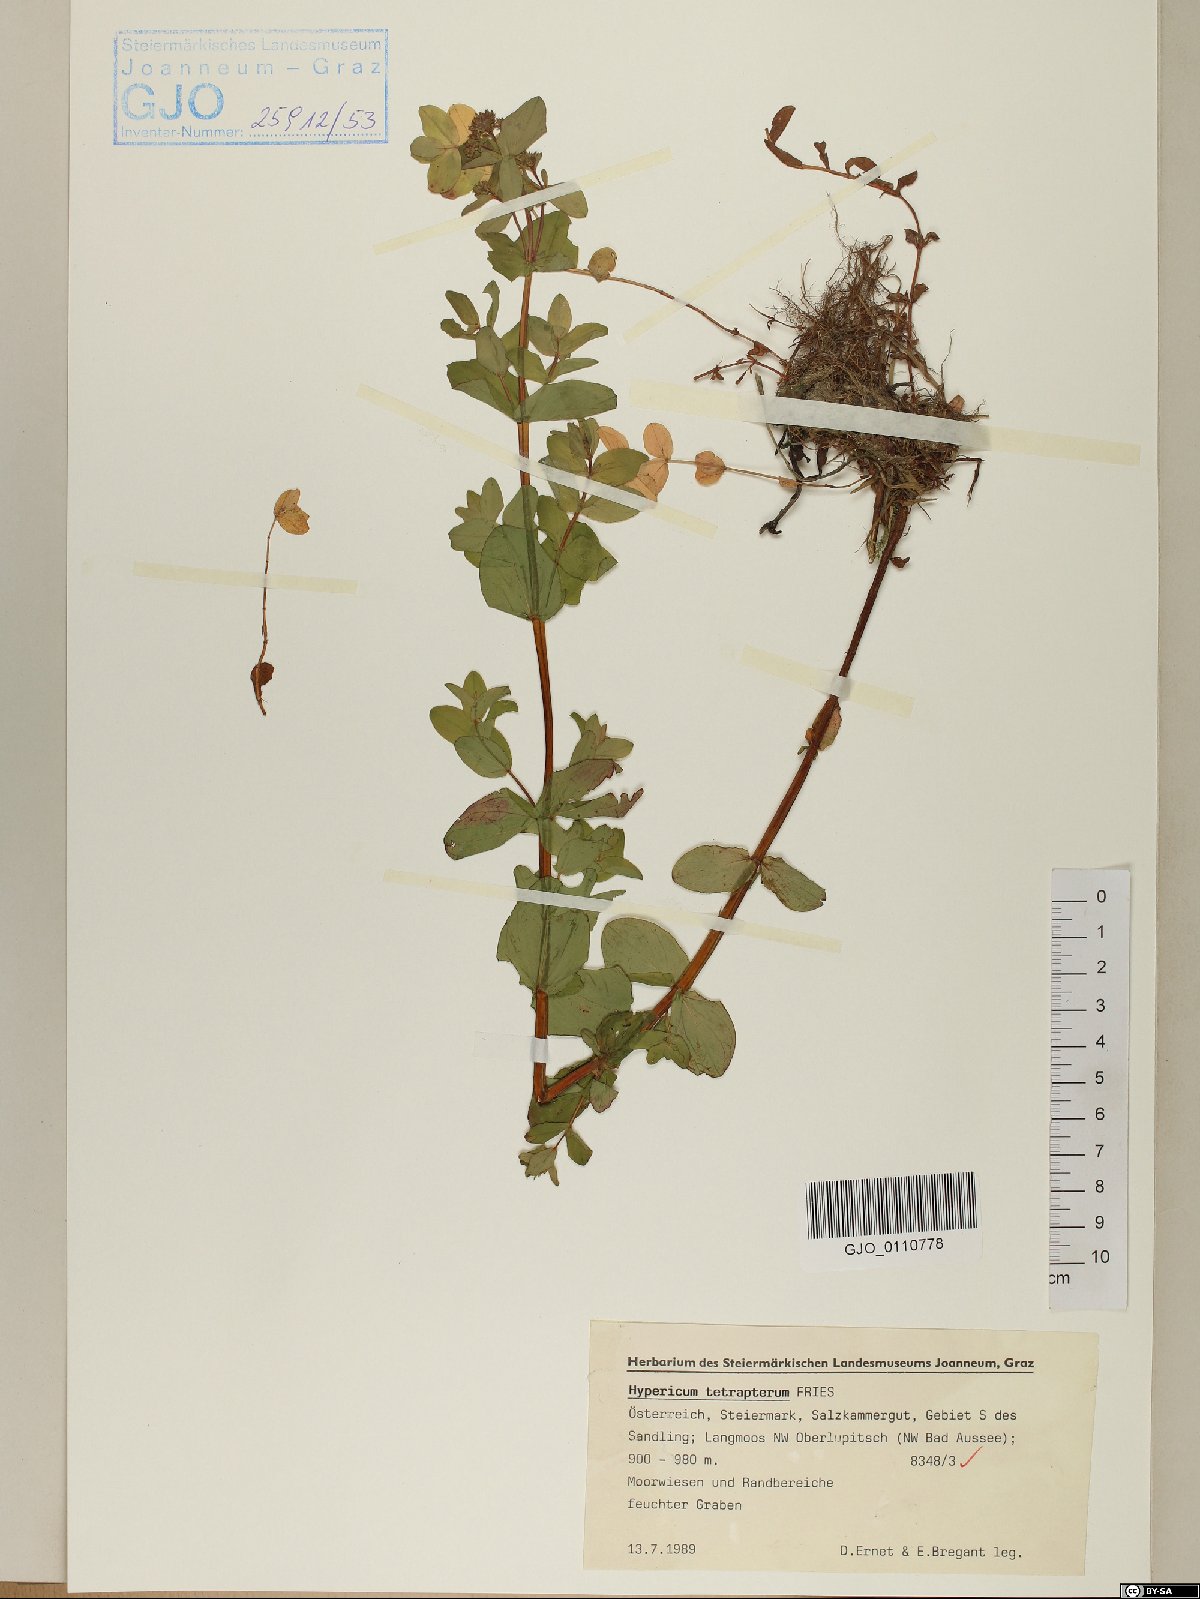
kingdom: Plantae
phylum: Tracheophyta
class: Magnoliopsida
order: Malpighiales
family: Hypericaceae
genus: Hypericum
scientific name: Hypericum tetrapterum
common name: Square-stalked st. john's-wort
